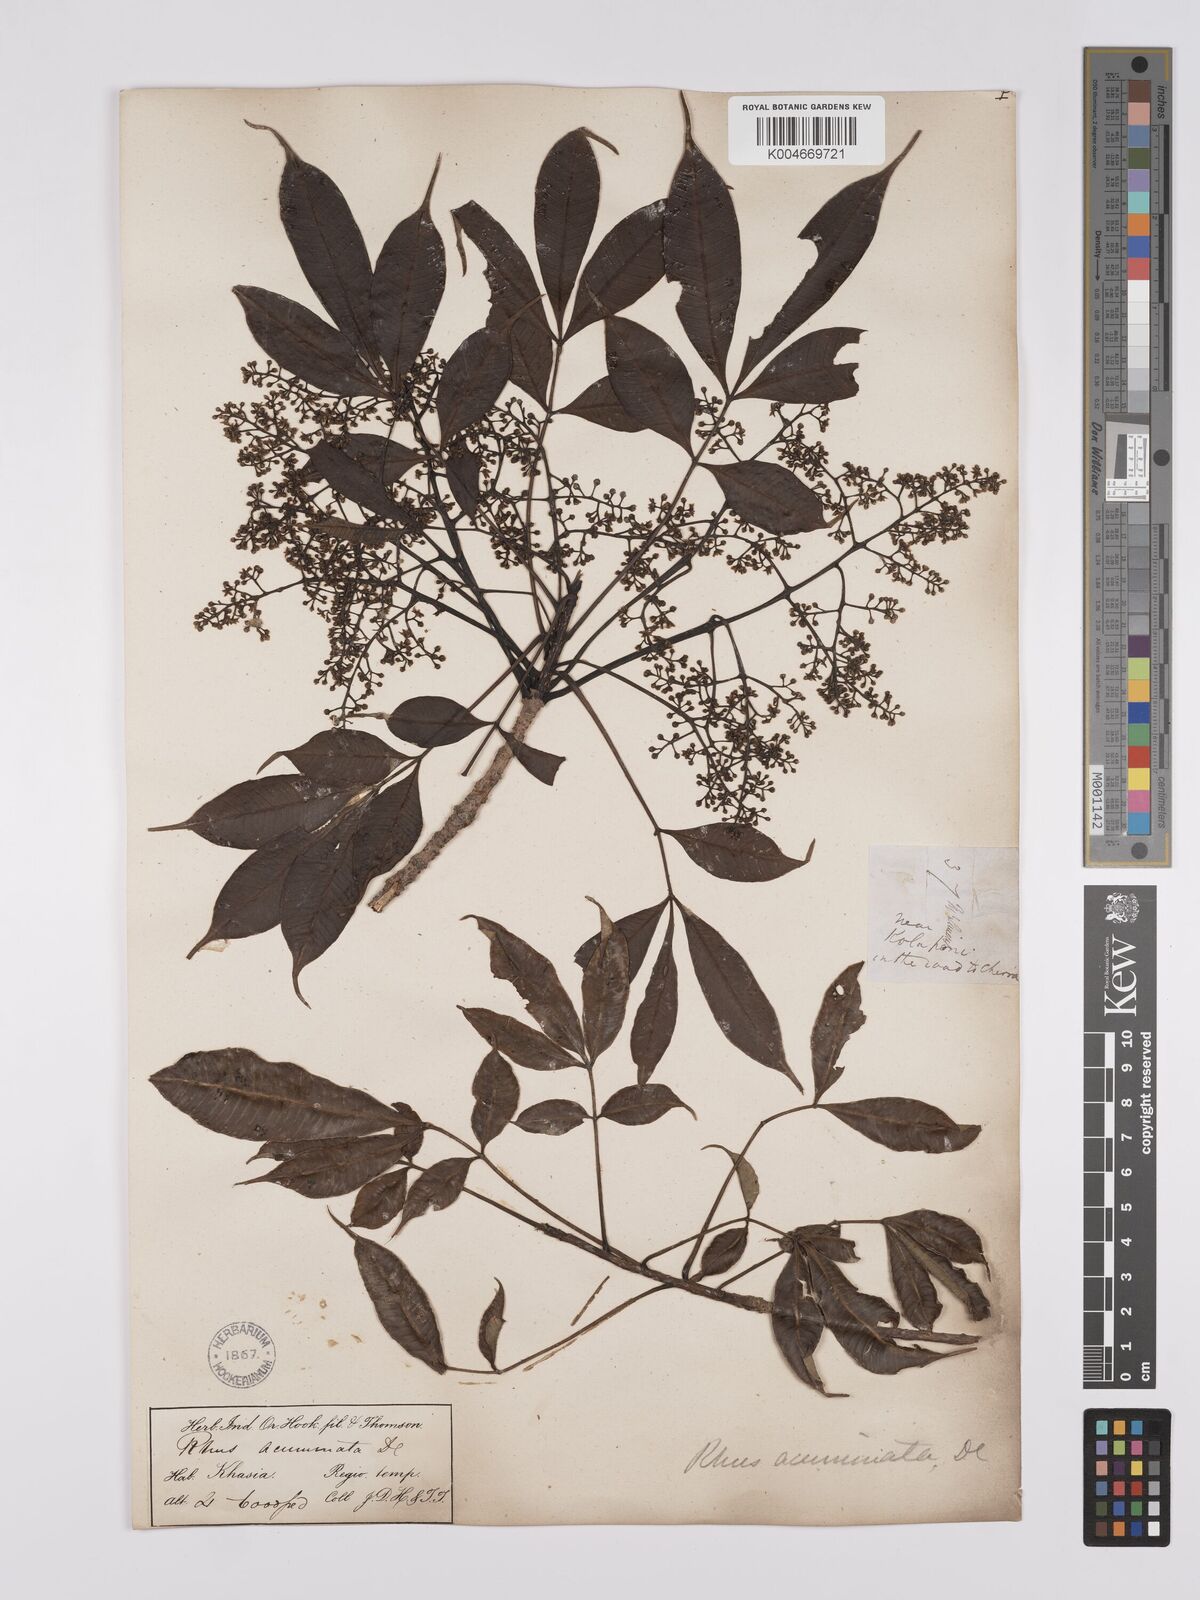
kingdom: Plantae
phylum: Tracheophyta
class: Magnoliopsida
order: Sapindales
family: Anacardiaceae
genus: Toxicodendron
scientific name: Toxicodendron succedaneum
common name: Wax tree
